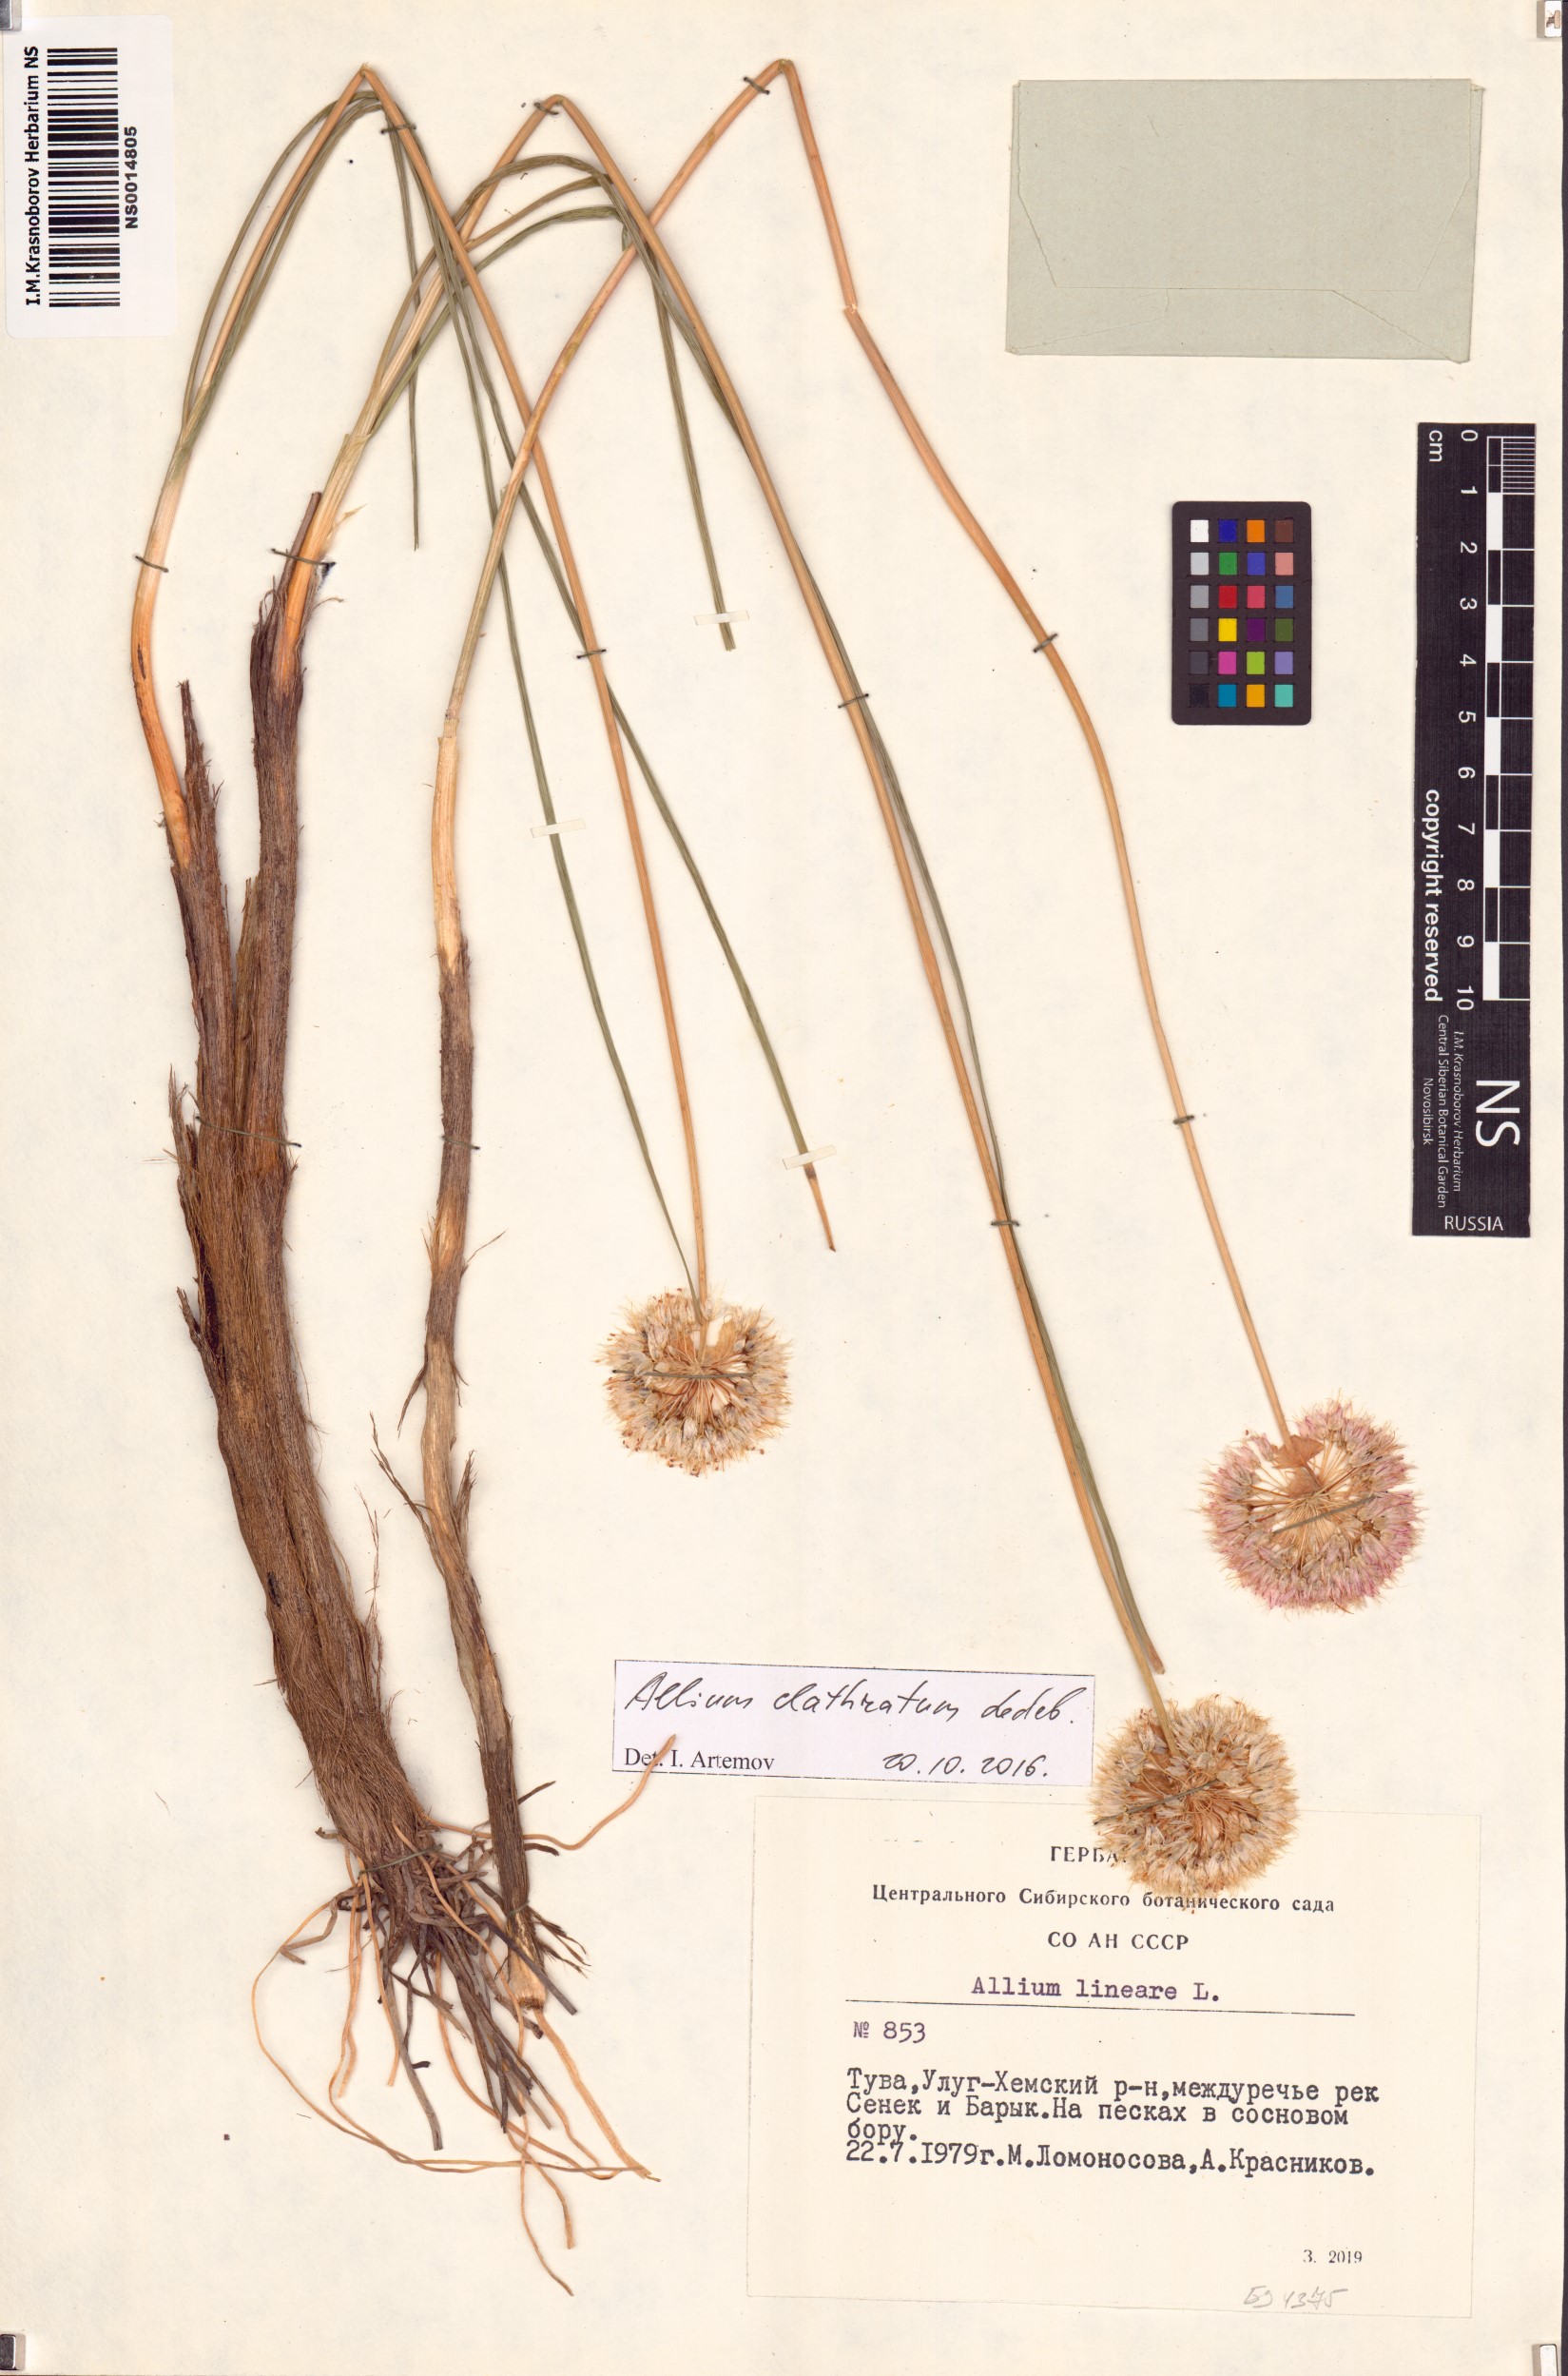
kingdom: Plantae
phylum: Tracheophyta
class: Liliopsida
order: Asparagales
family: Amaryllidaceae
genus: Allium
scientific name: Allium clathratum
